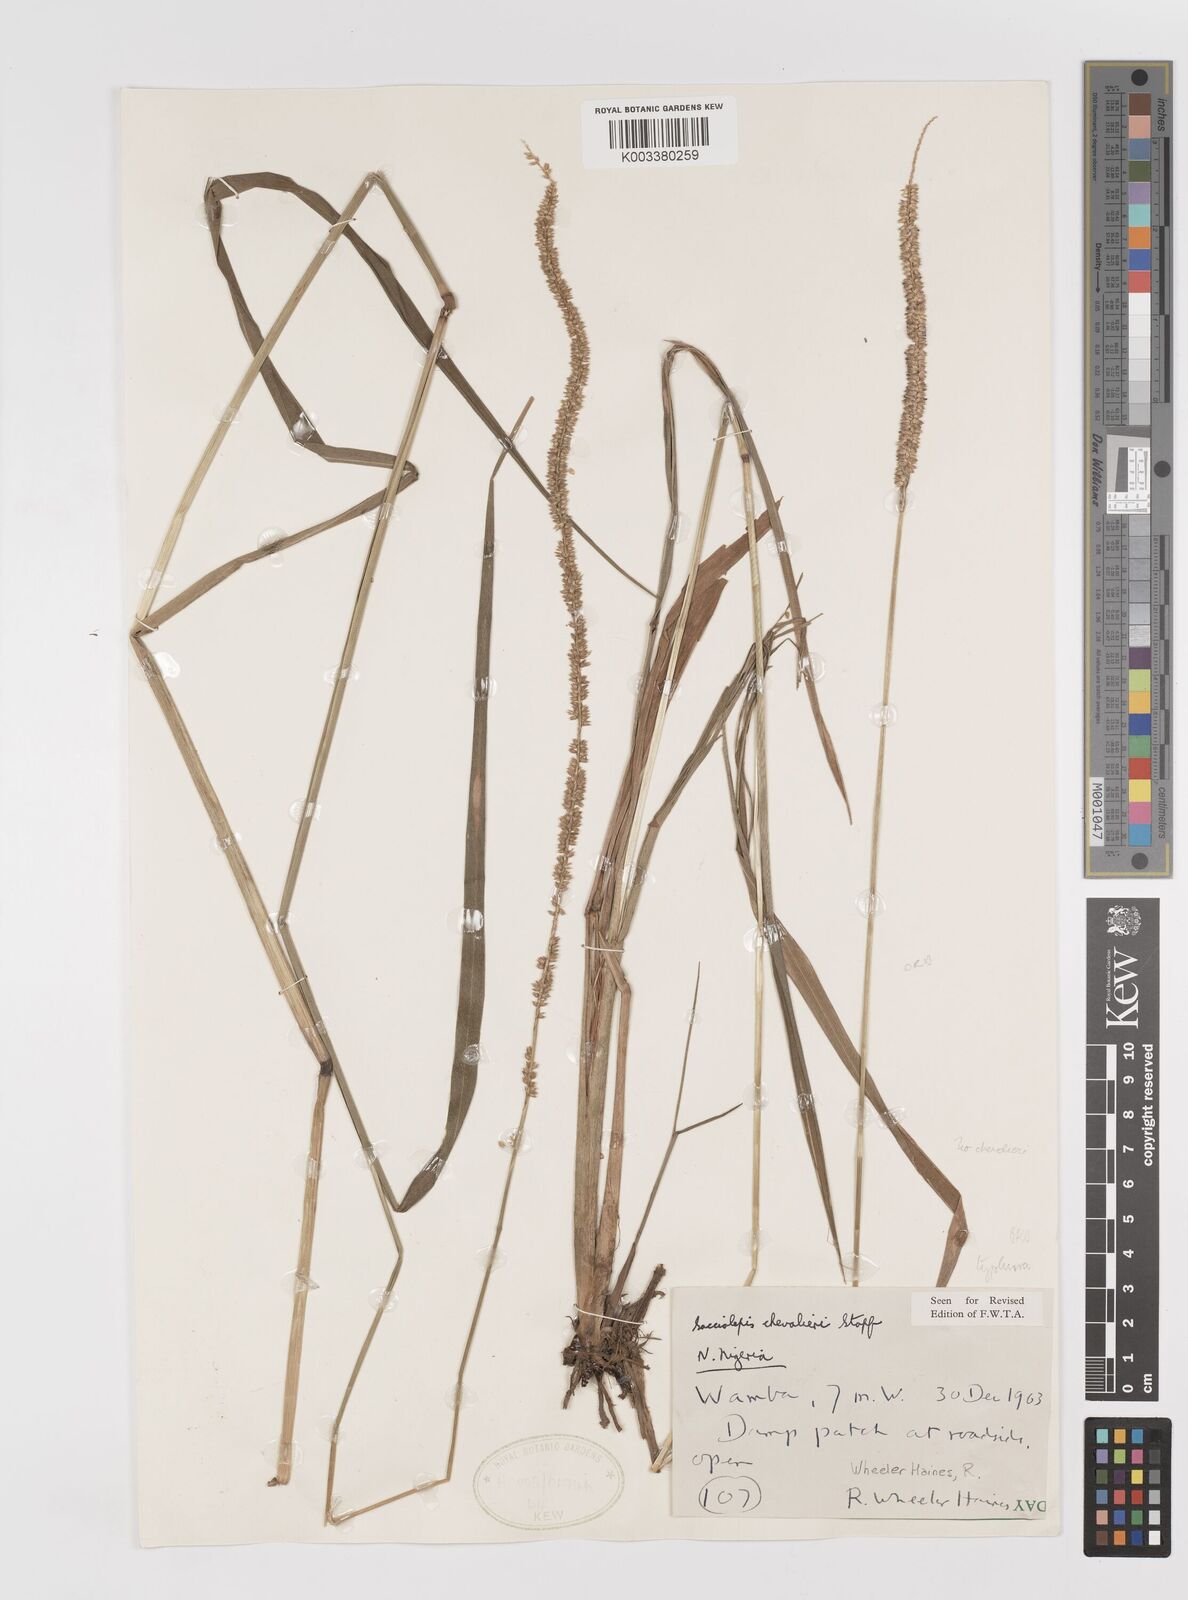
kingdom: Plantae
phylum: Tracheophyta
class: Liliopsida
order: Poales
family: Poaceae
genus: Sacciolepis
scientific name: Sacciolepis chevalieri
